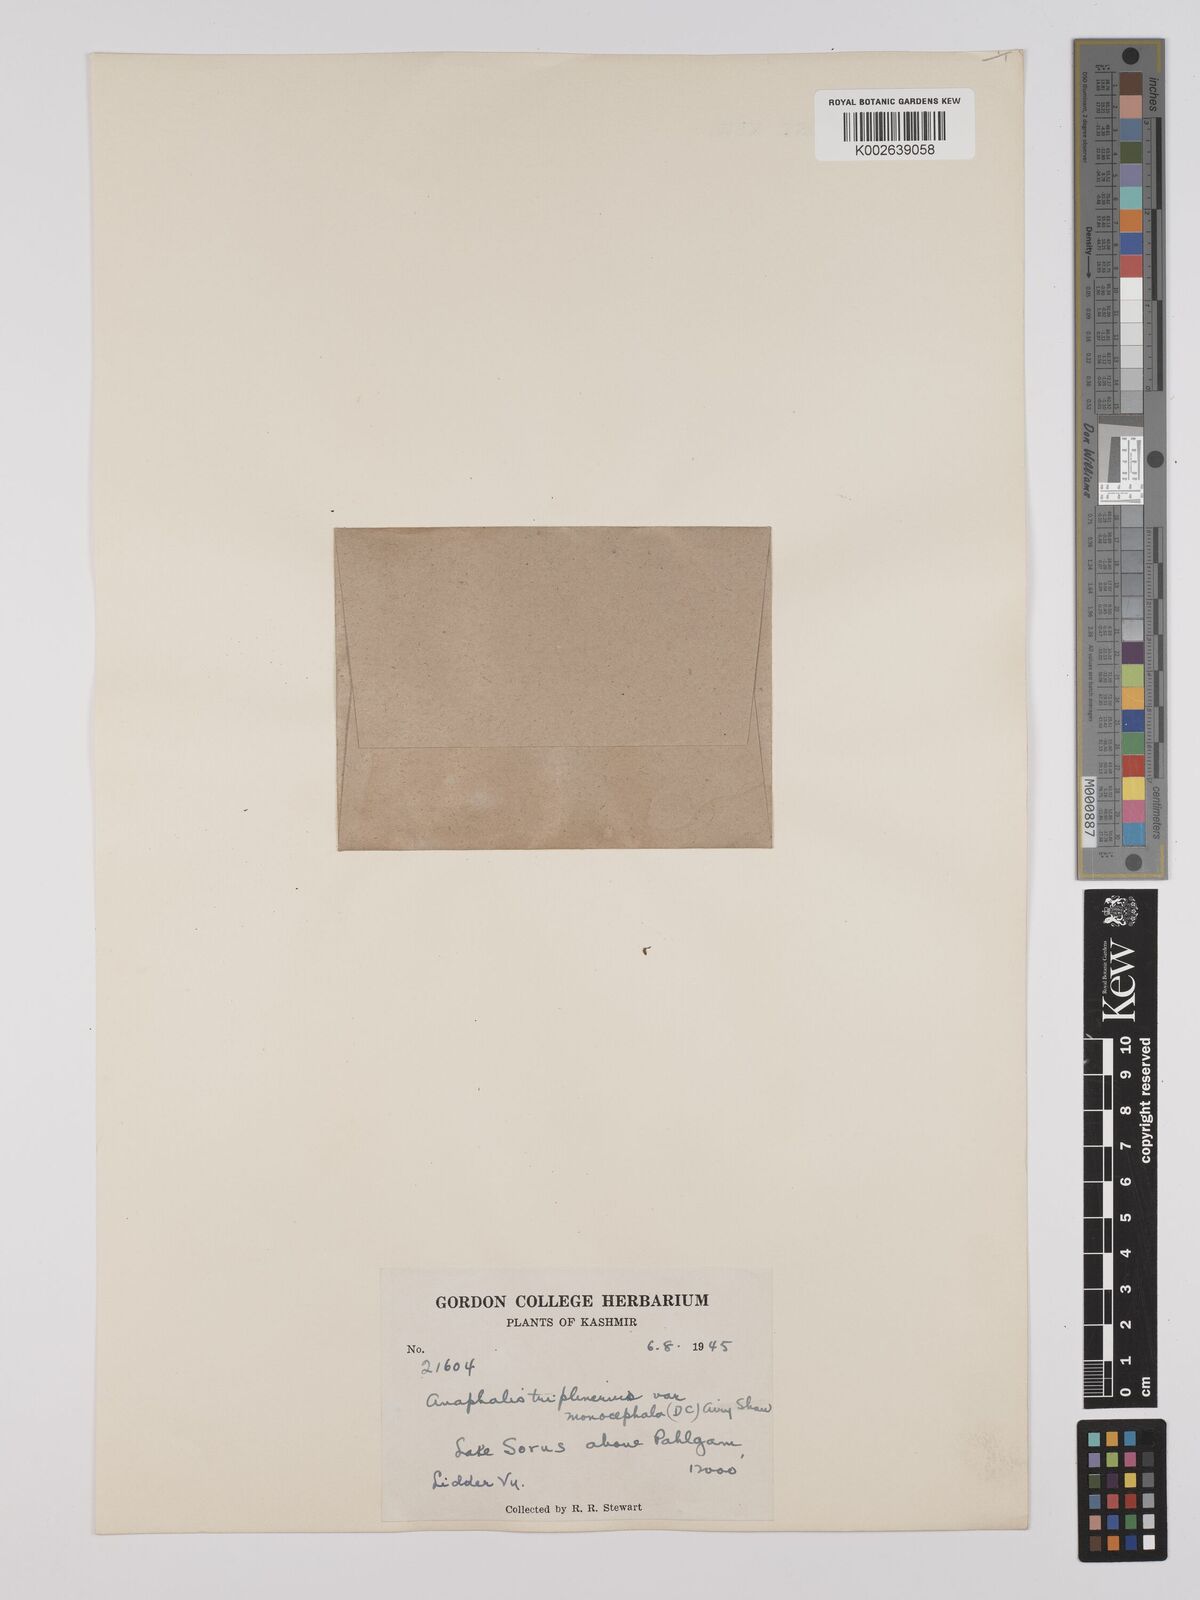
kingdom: Plantae
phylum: Tracheophyta
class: Magnoliopsida
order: Asterales
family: Asteraceae
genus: Anaphalis
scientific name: Anaphalis nepalensis
